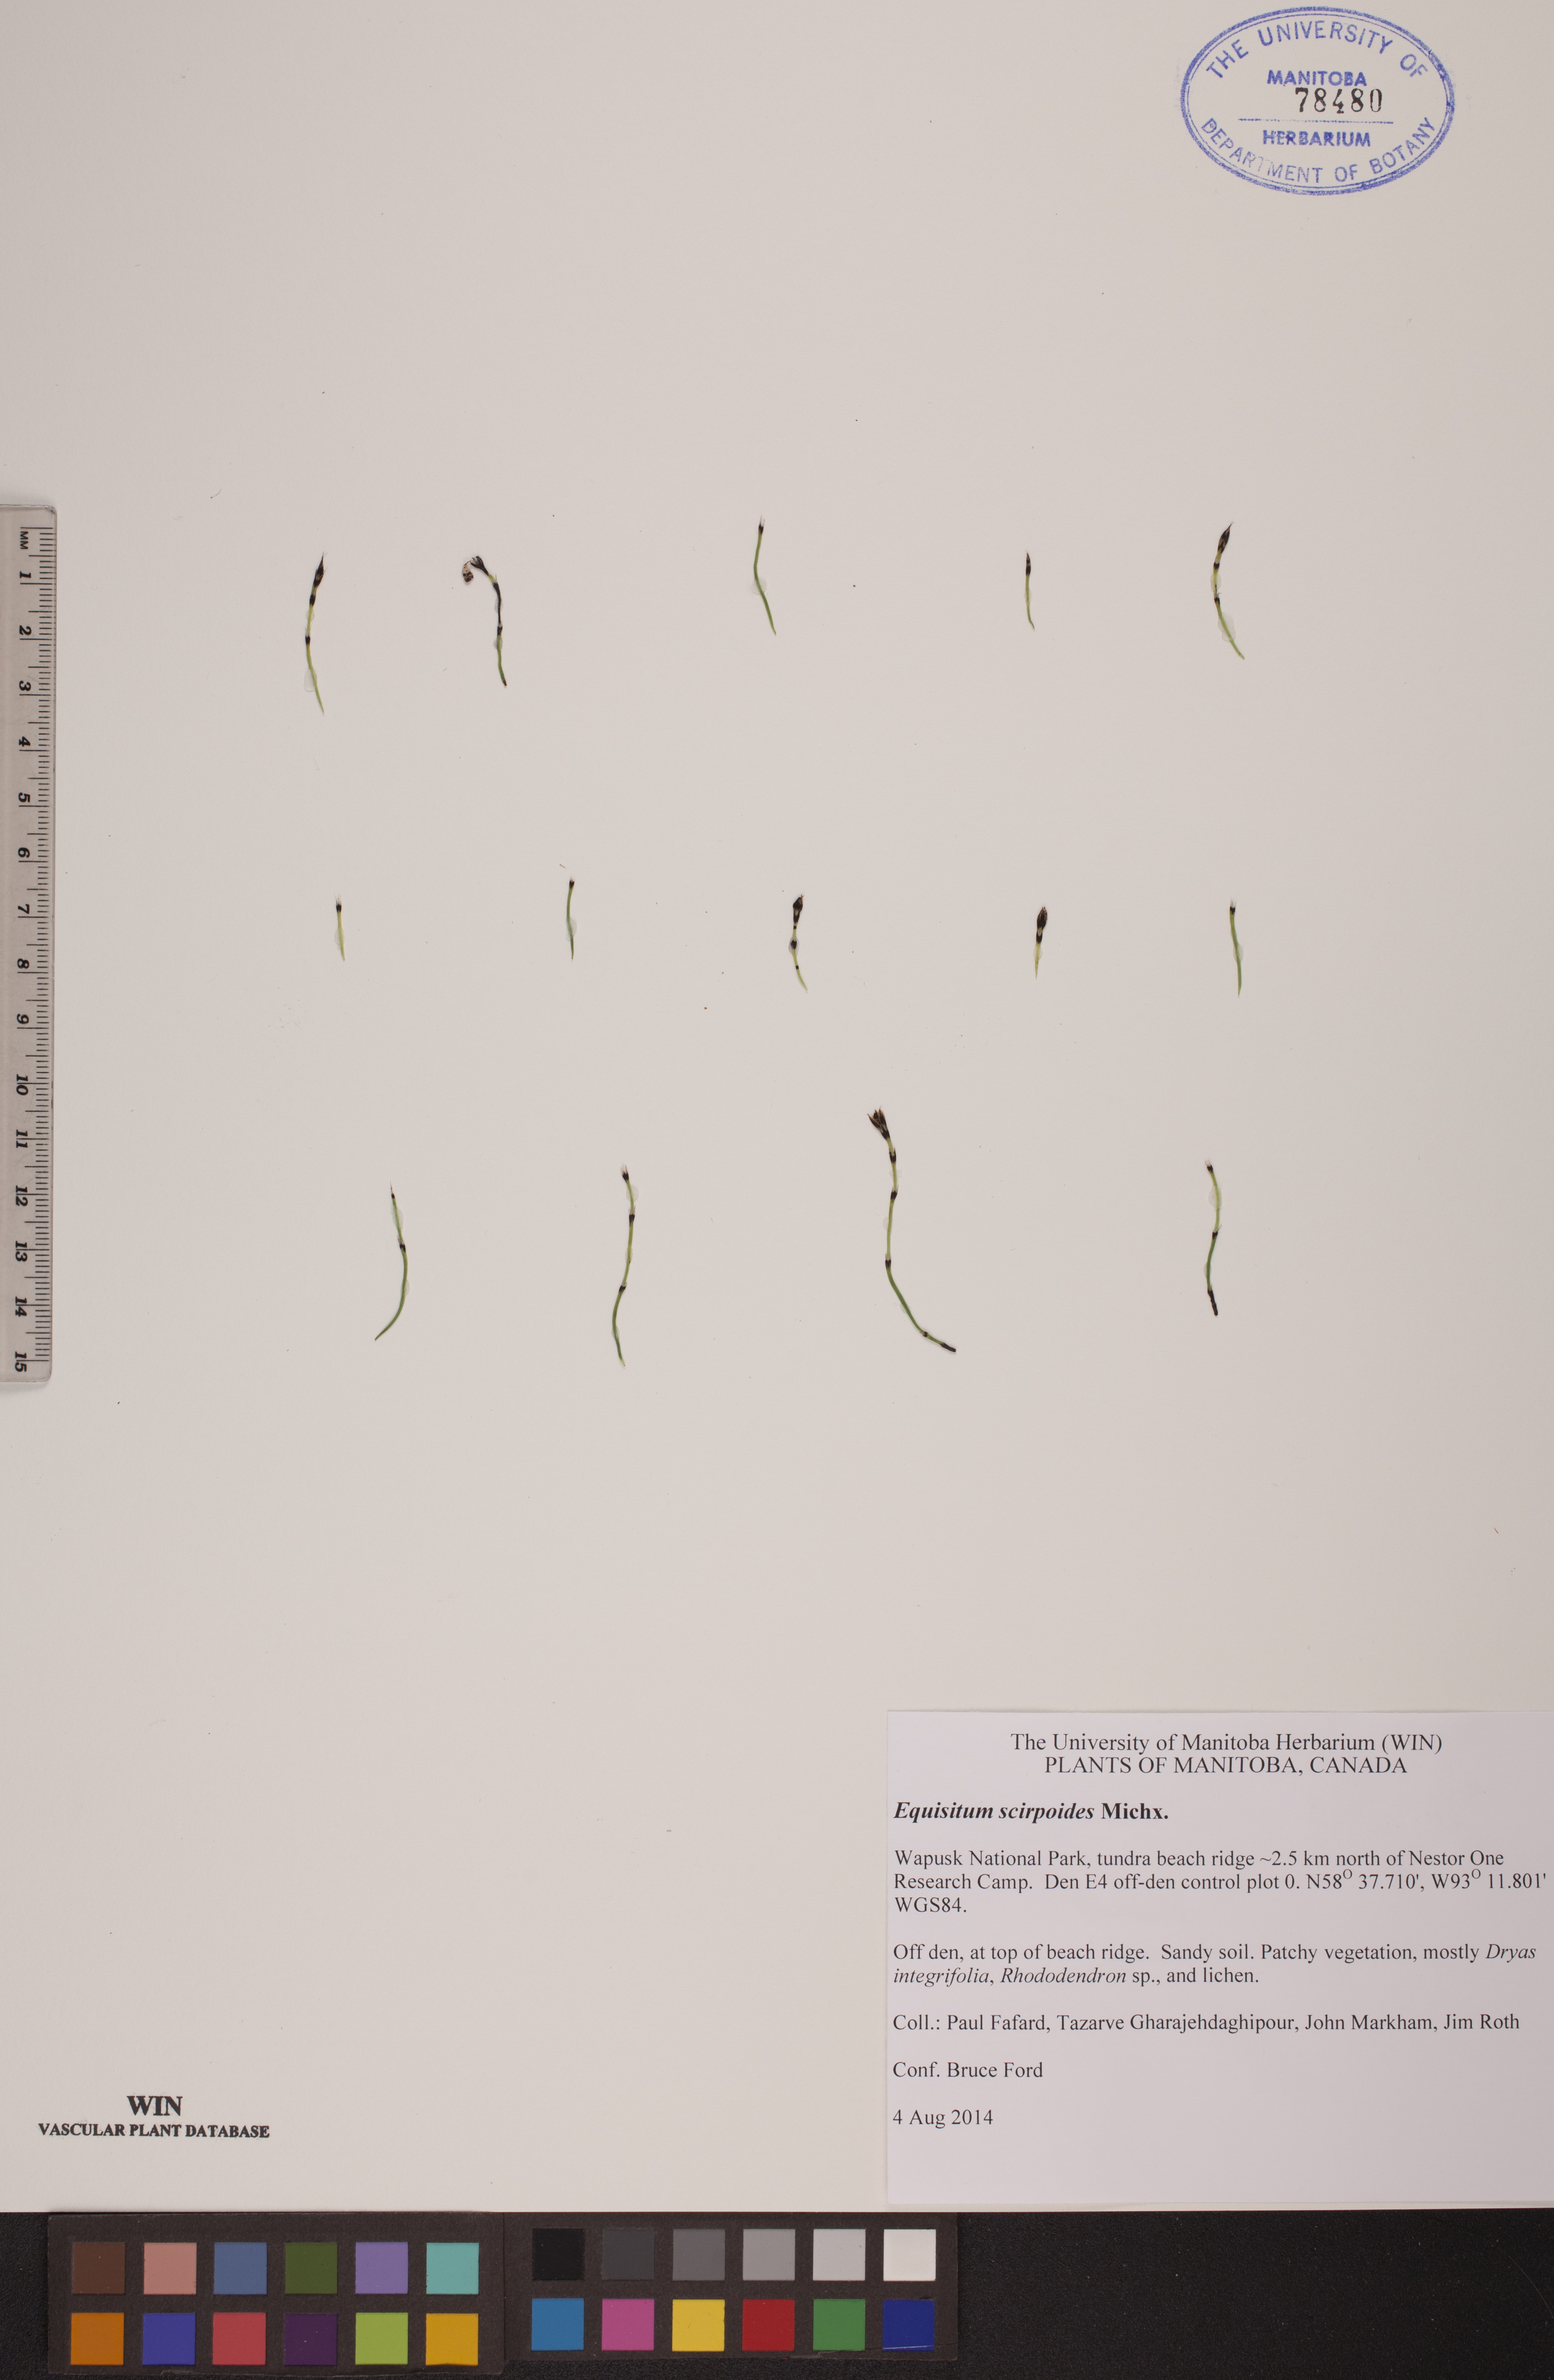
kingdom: Plantae
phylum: Tracheophyta
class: Polypodiopsida
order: Equisetales
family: Equisetaceae
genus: Equisetum
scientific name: Equisetum scirpoides
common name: Delicate horsetail
